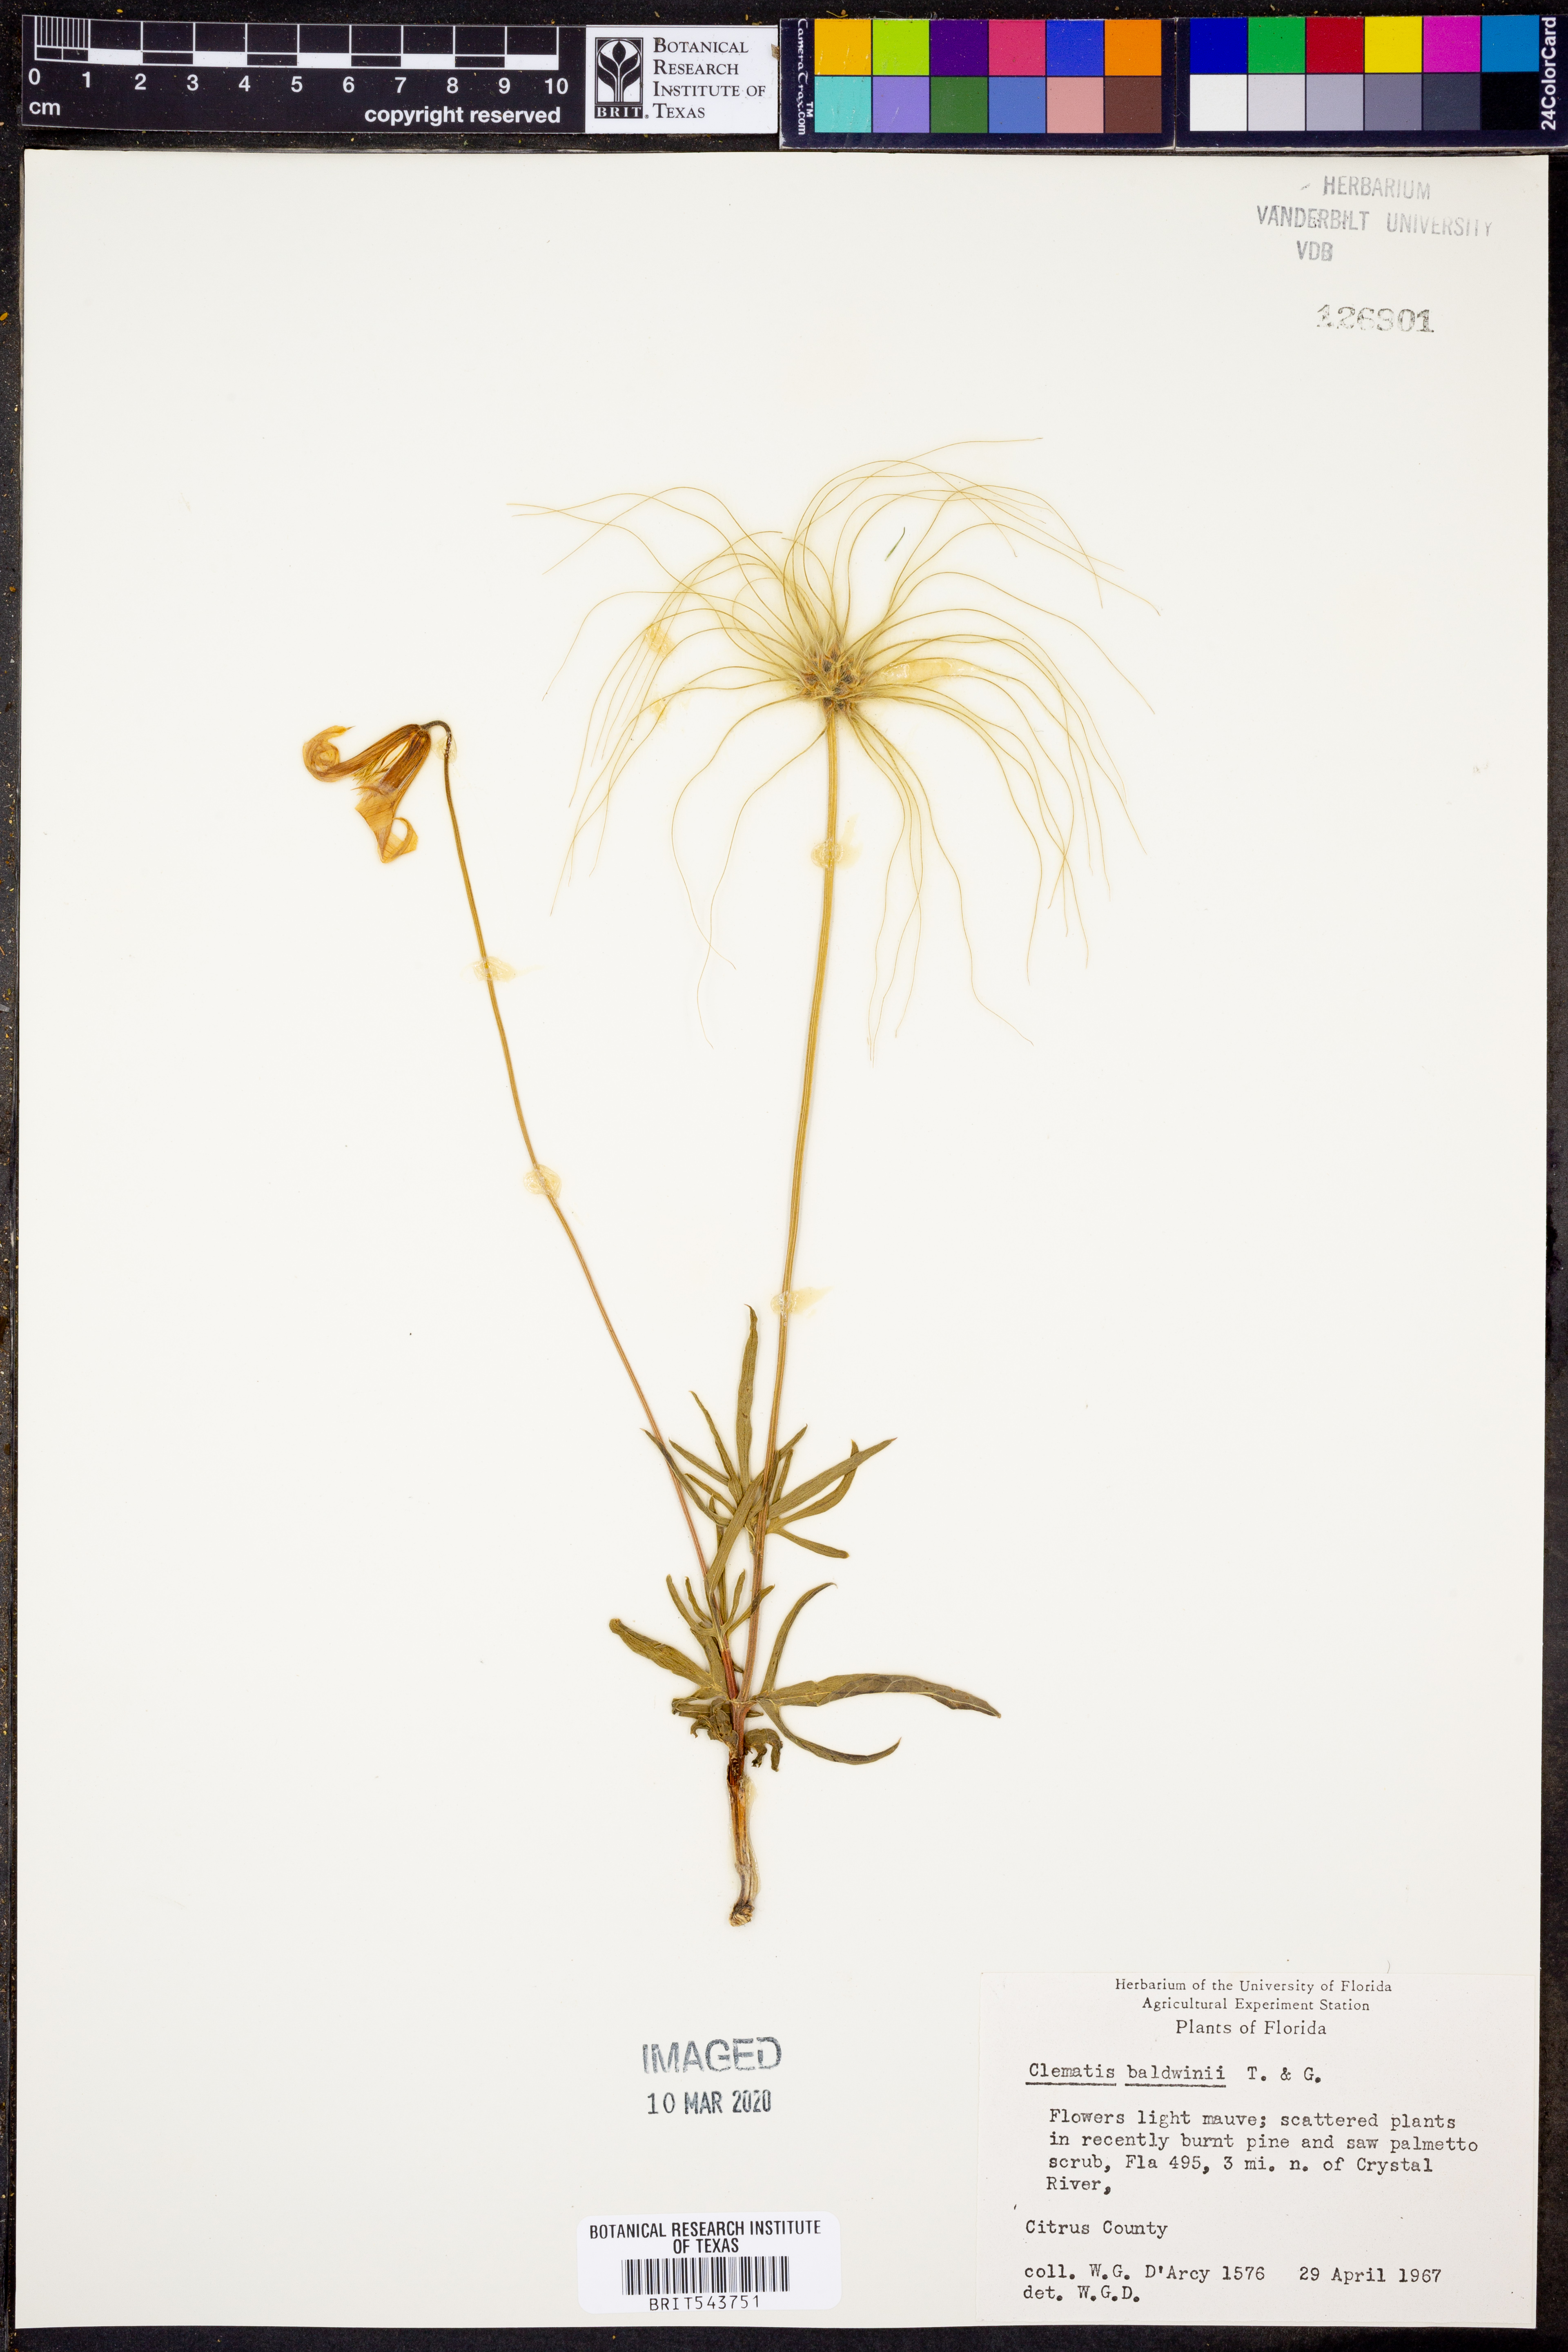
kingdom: Plantae
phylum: Tracheophyta
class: Magnoliopsida
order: Ranunculales
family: Ranunculaceae
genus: Clematis
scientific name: Clematis baldwinii
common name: Pine-hyacinth
